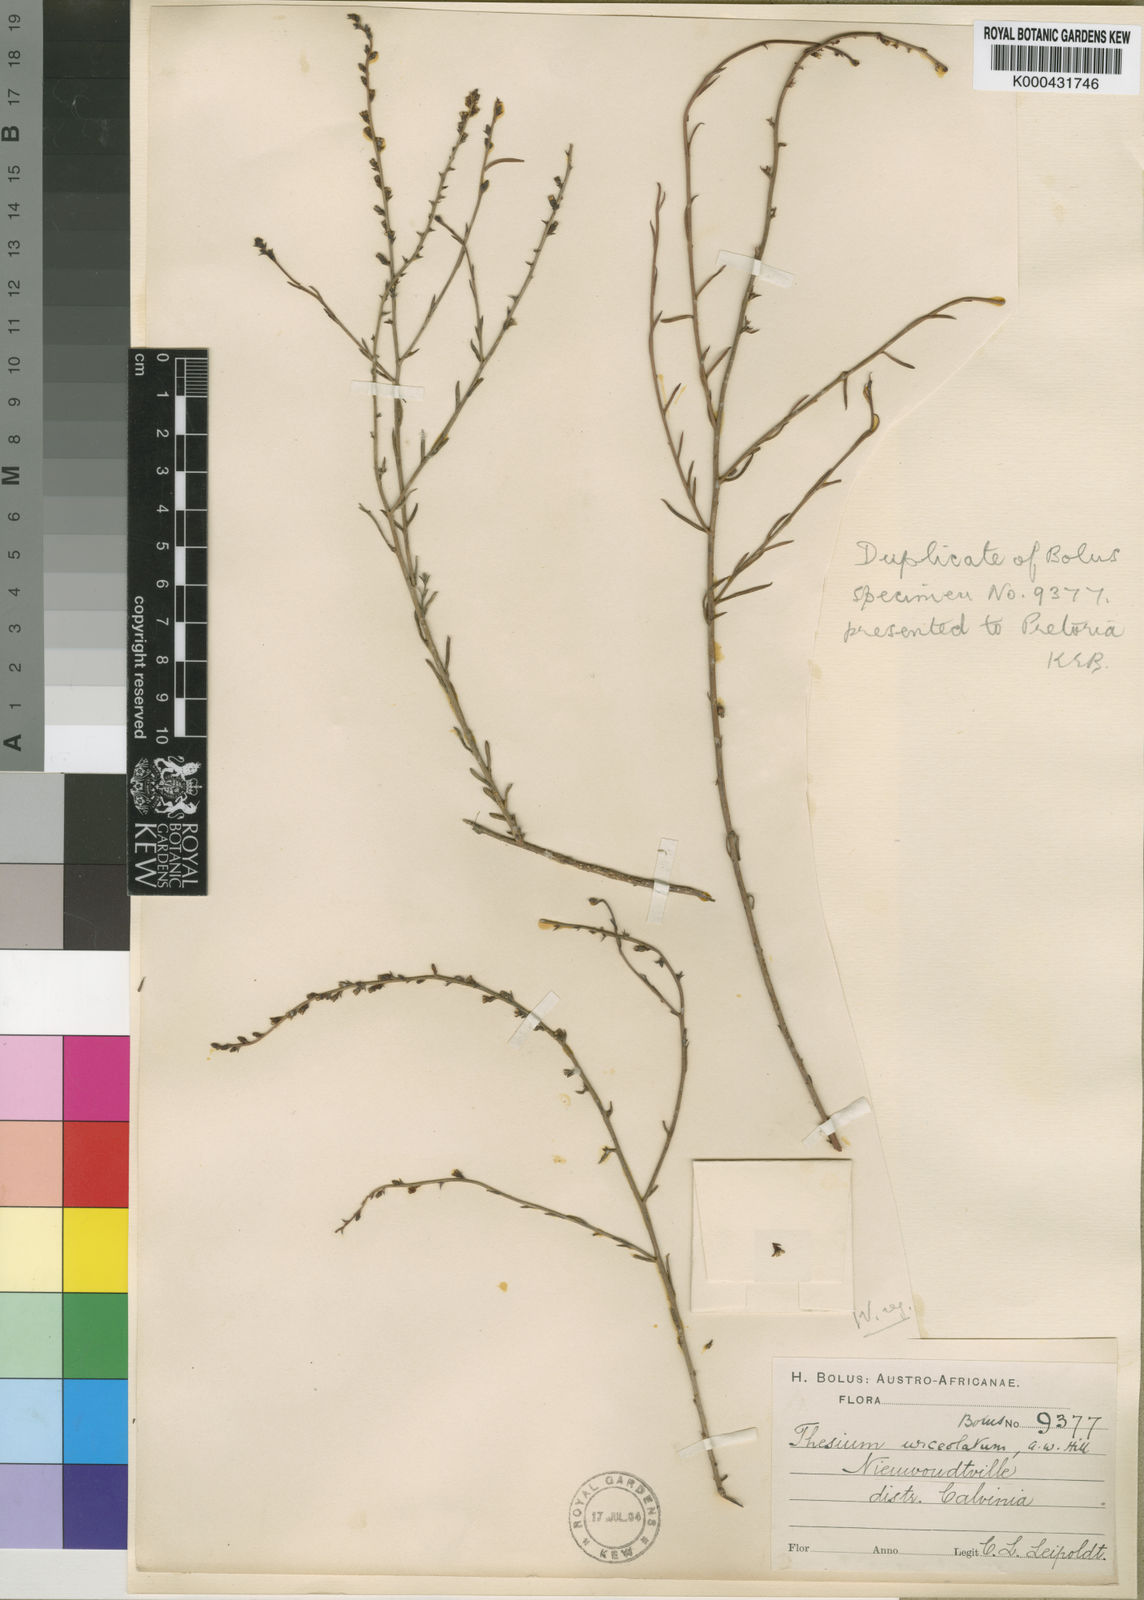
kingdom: Plantae
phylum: Tracheophyta
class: Magnoliopsida
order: Santalales
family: Thesiaceae
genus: Thesium
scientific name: Thesium urceolatum
